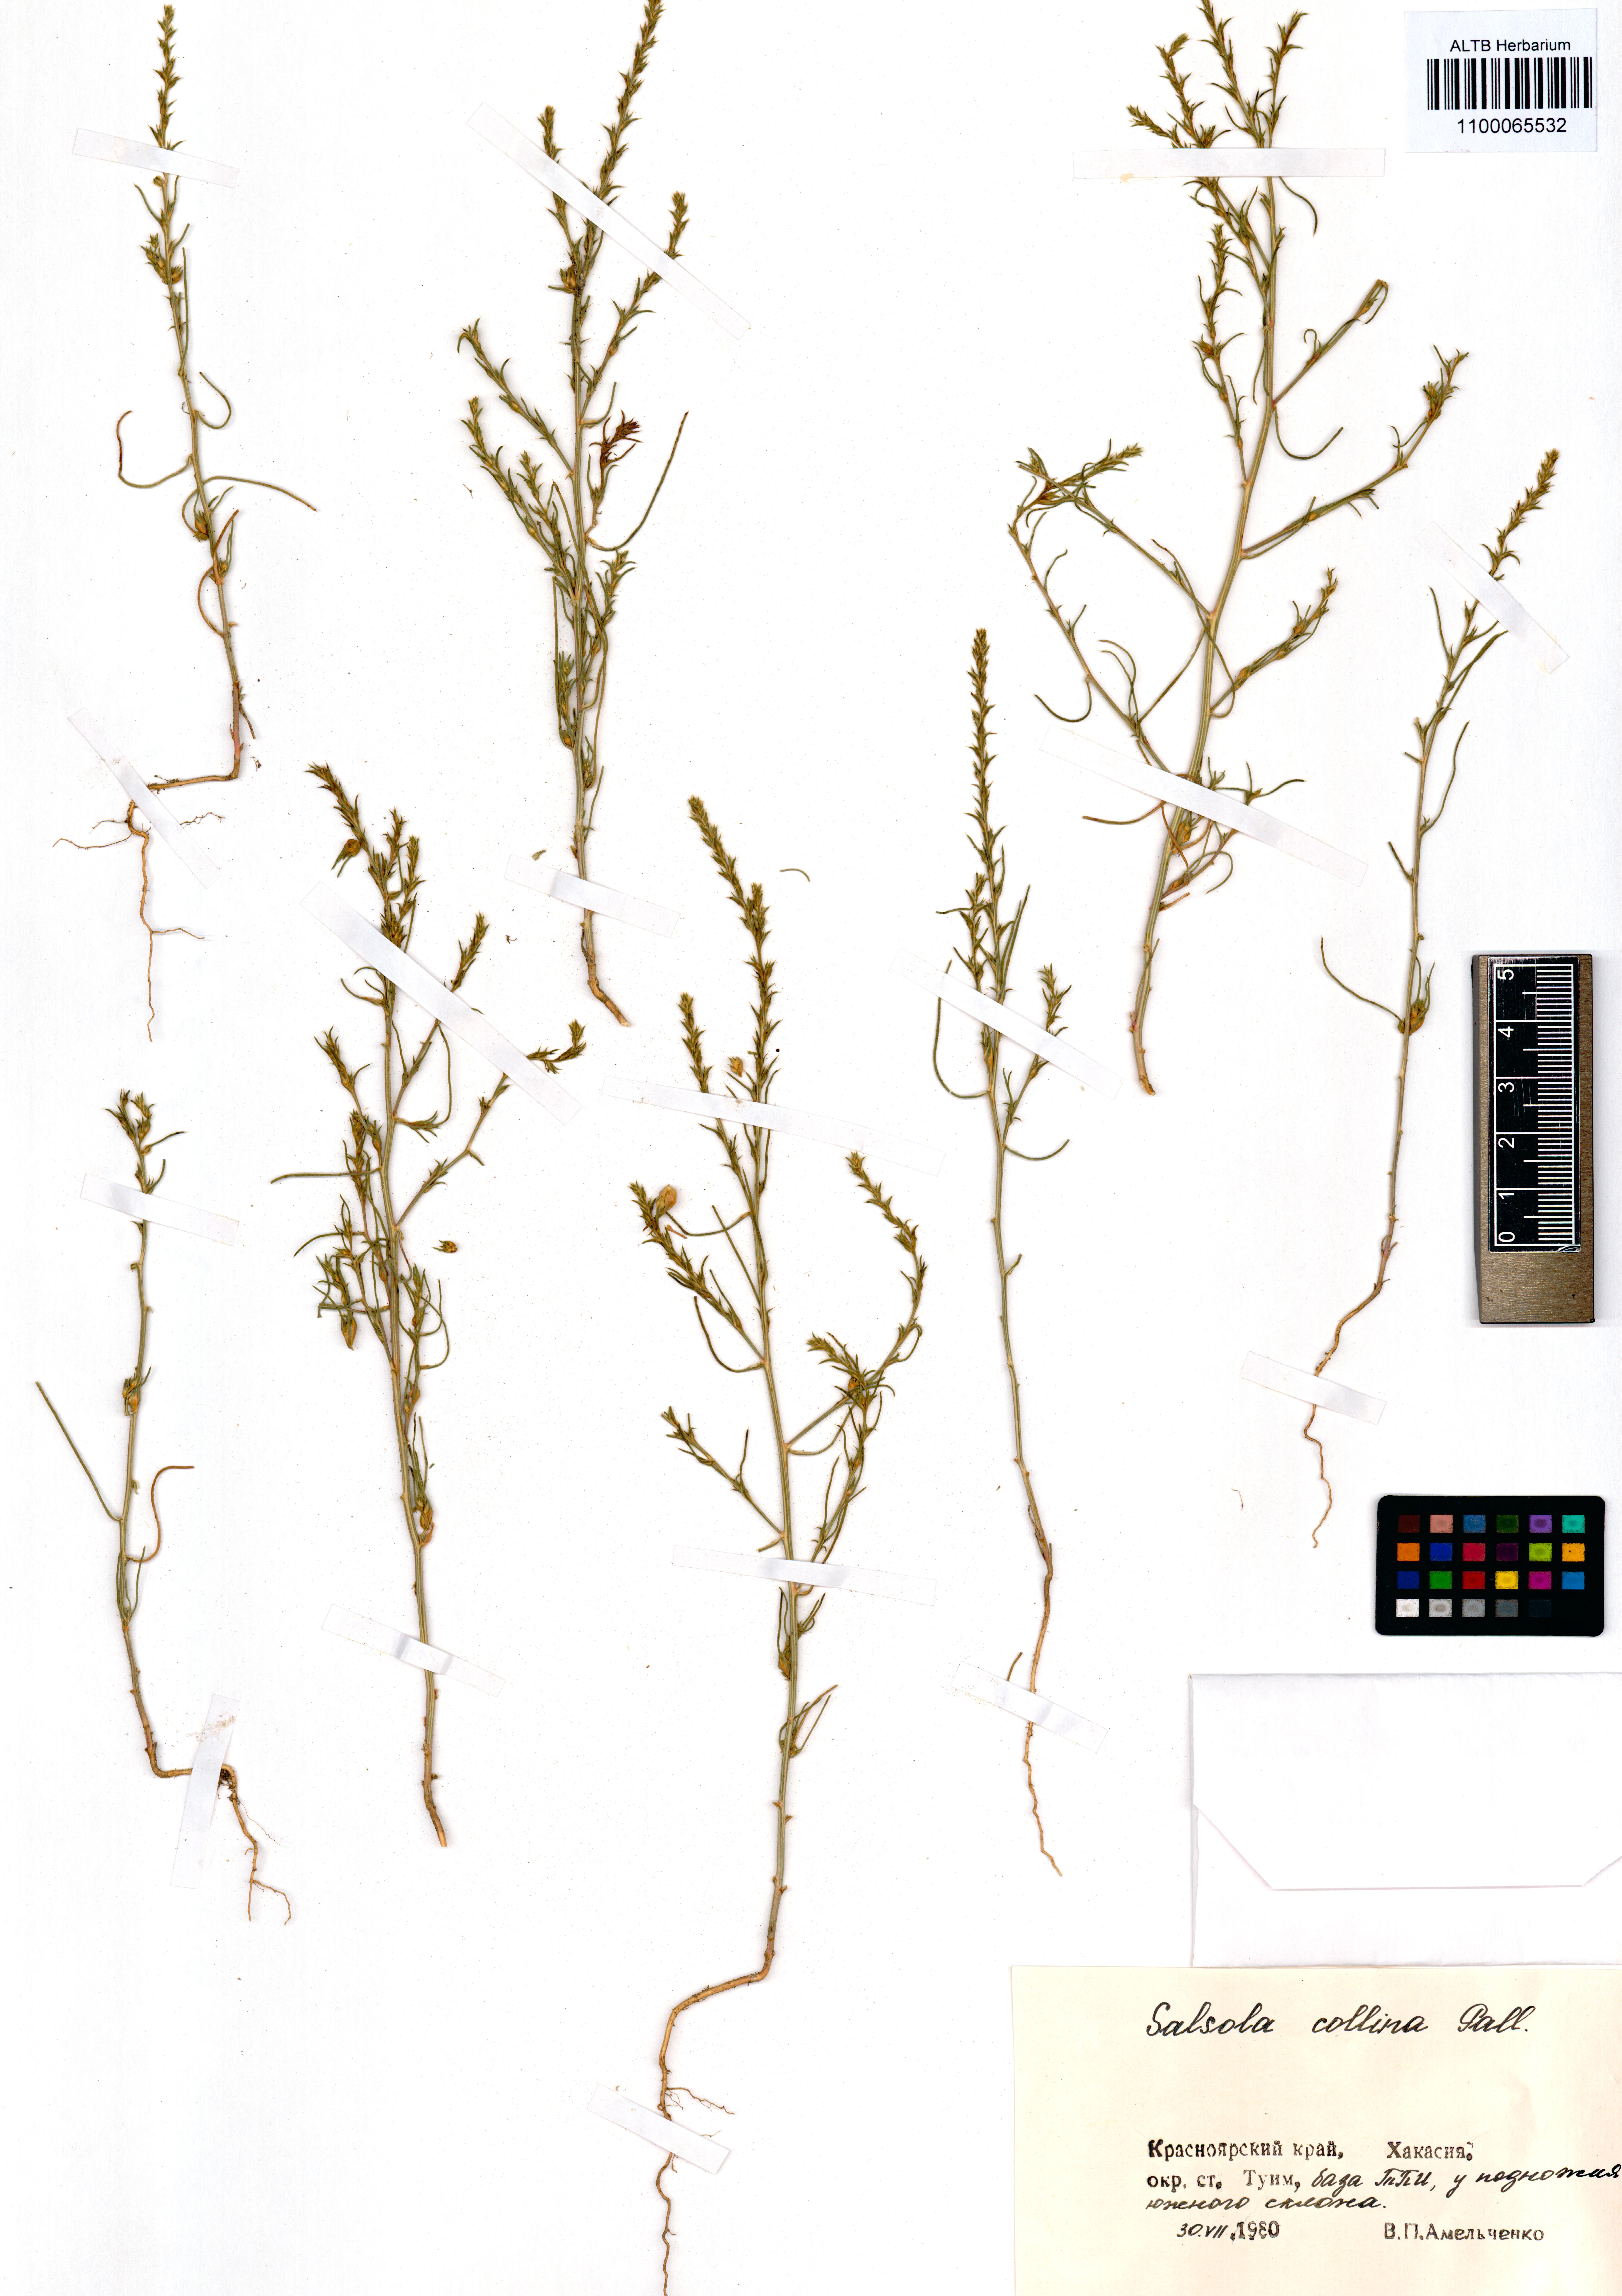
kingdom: Plantae
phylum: Tracheophyta
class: Magnoliopsida
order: Caryophyllales
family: Amaranthaceae
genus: Salsola
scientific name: Salsola collina
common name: Tumbleweed
